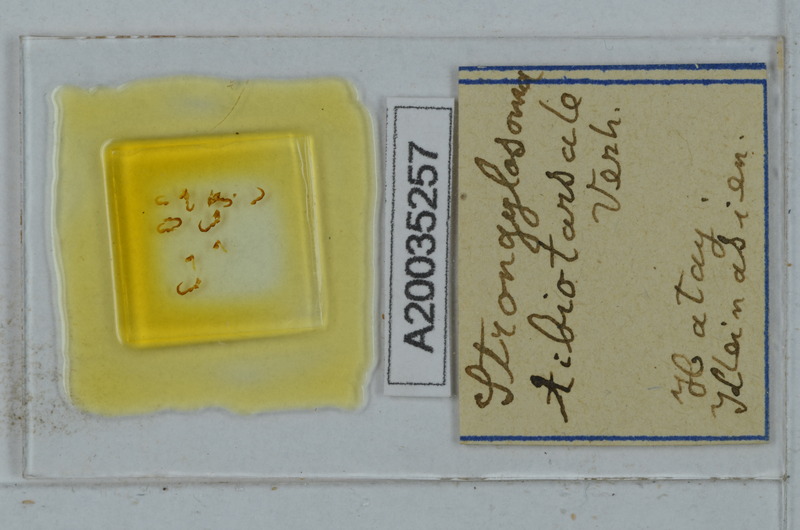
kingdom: Animalia
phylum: Arthropoda
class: Diplopoda
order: Polydesmida
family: Paradoxosomatidae
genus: Lohmanderodesmus
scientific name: Lohmanderodesmus galeatus
